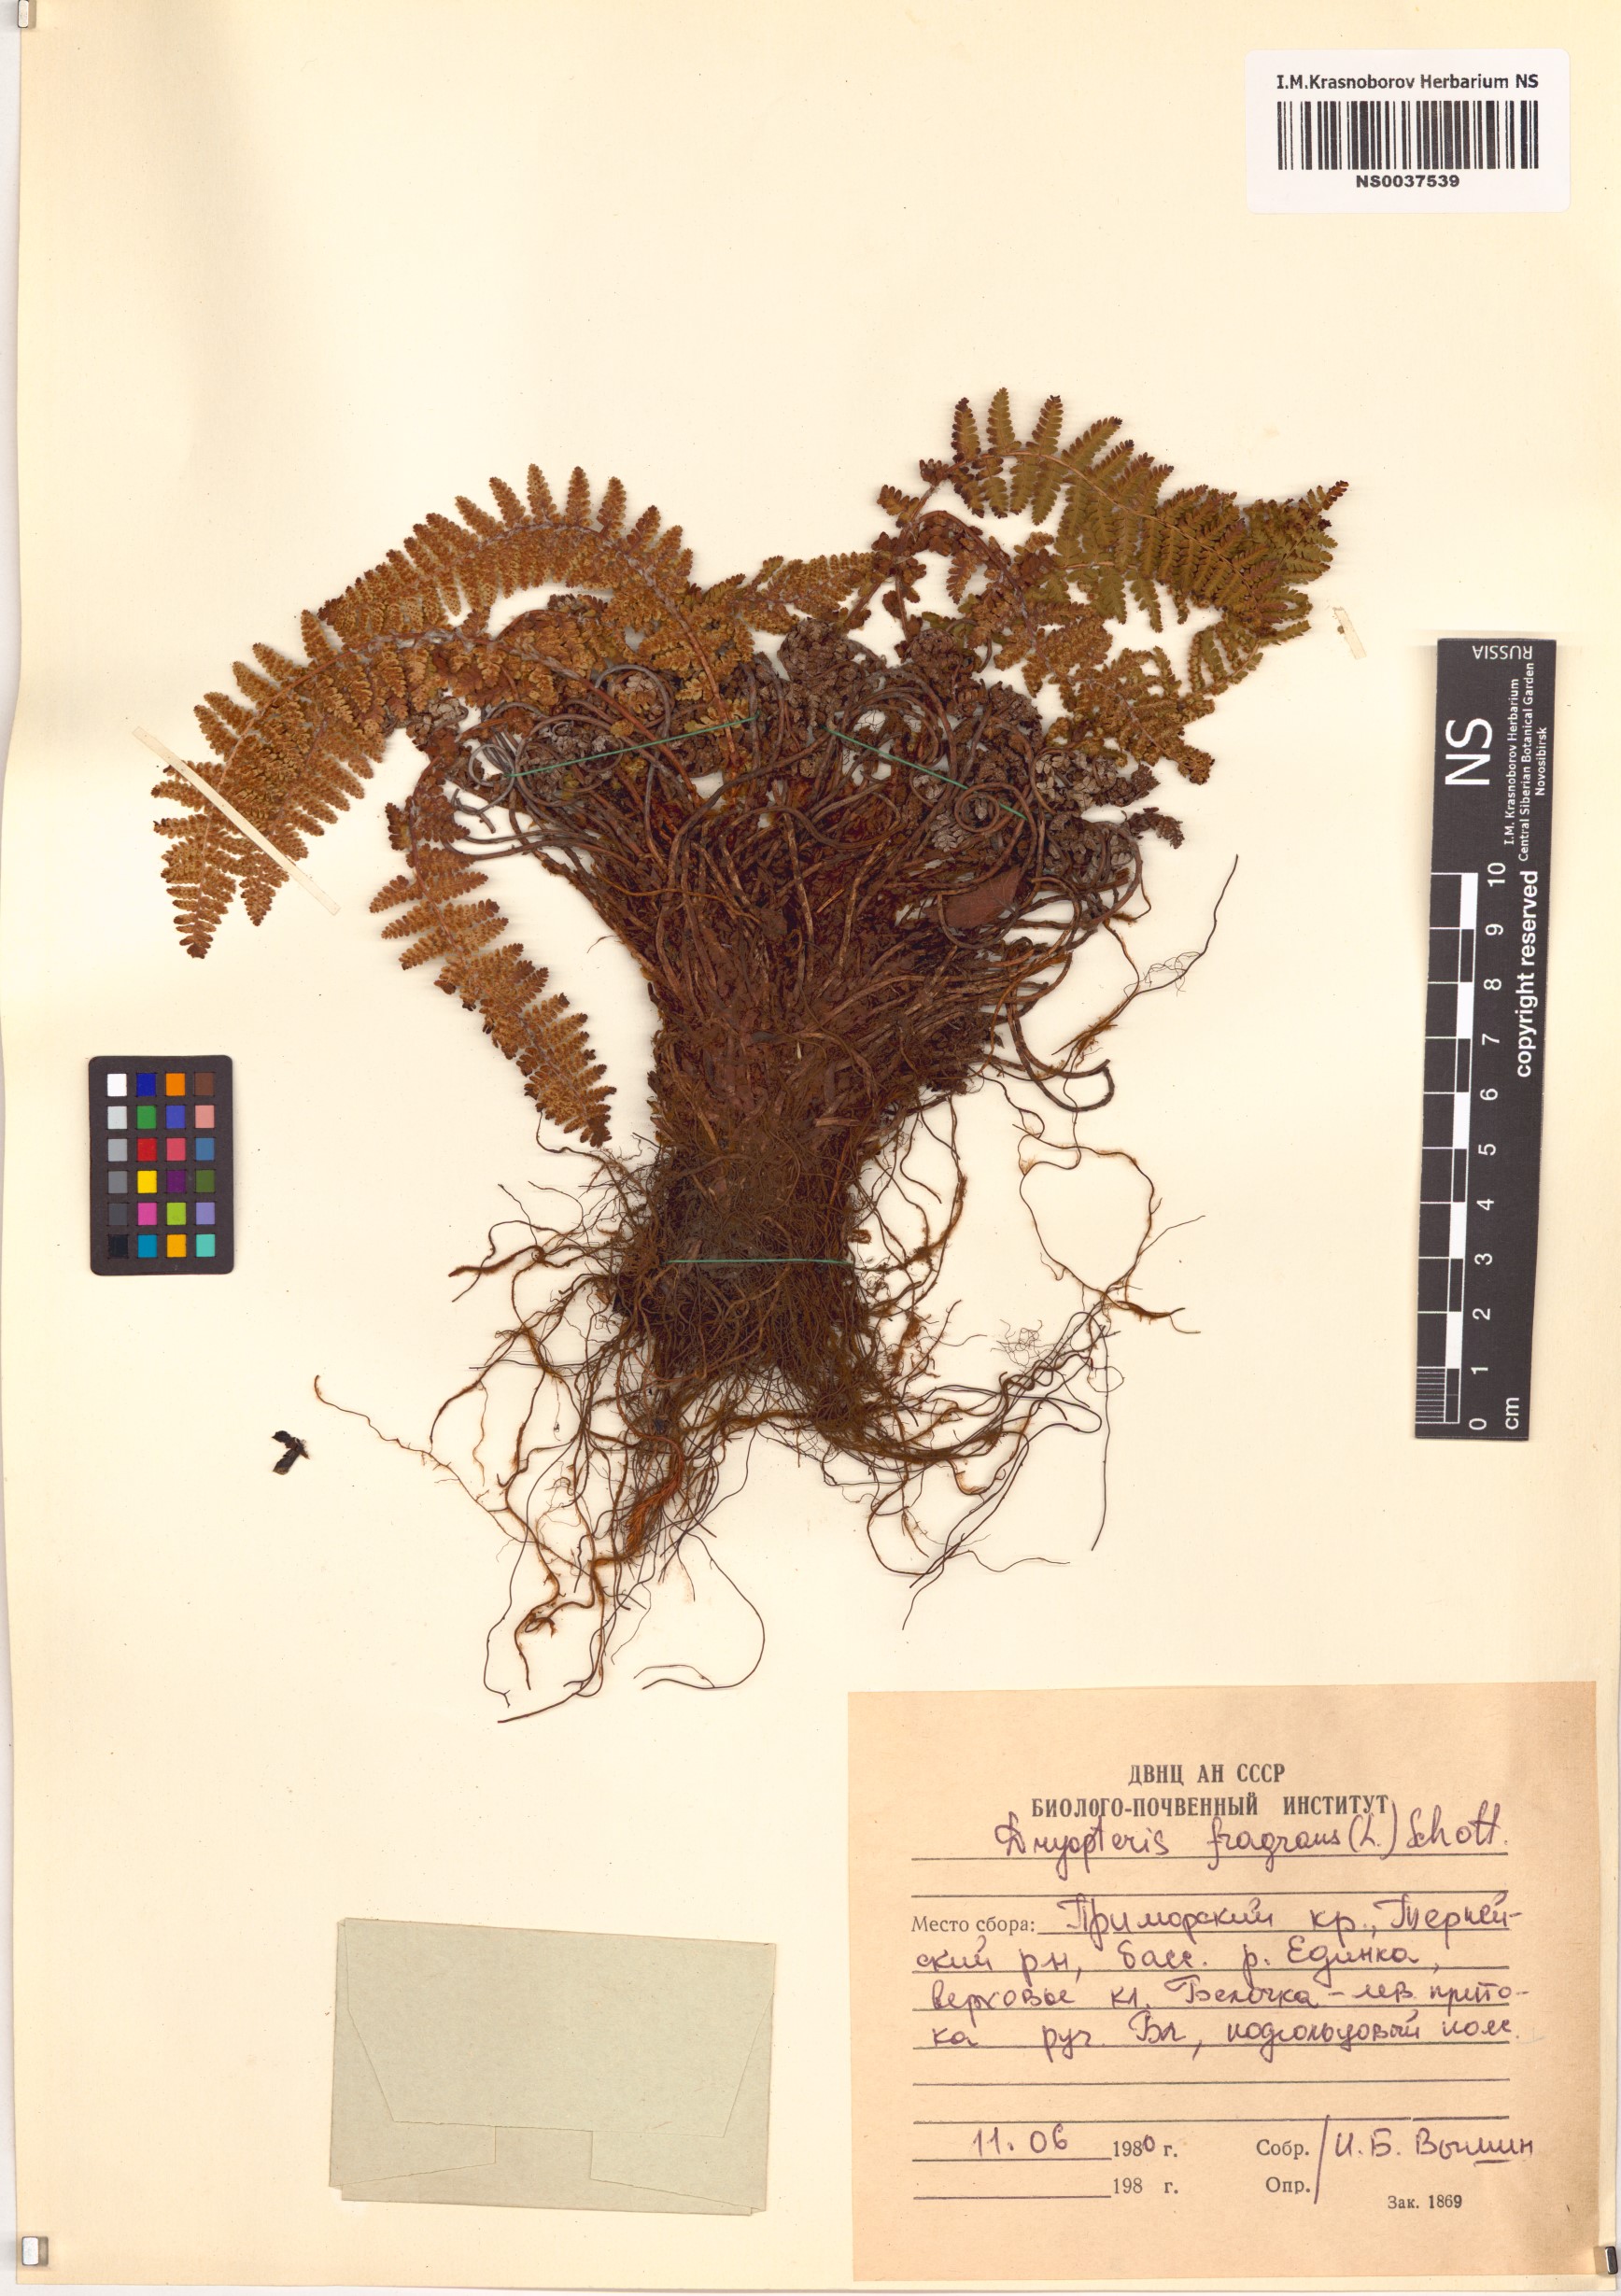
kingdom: Plantae
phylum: Tracheophyta
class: Polypodiopsida
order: Polypodiales
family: Dryopteridaceae
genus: Dryopteris
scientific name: Dryopteris fragrans
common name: Fragrant wood fern
